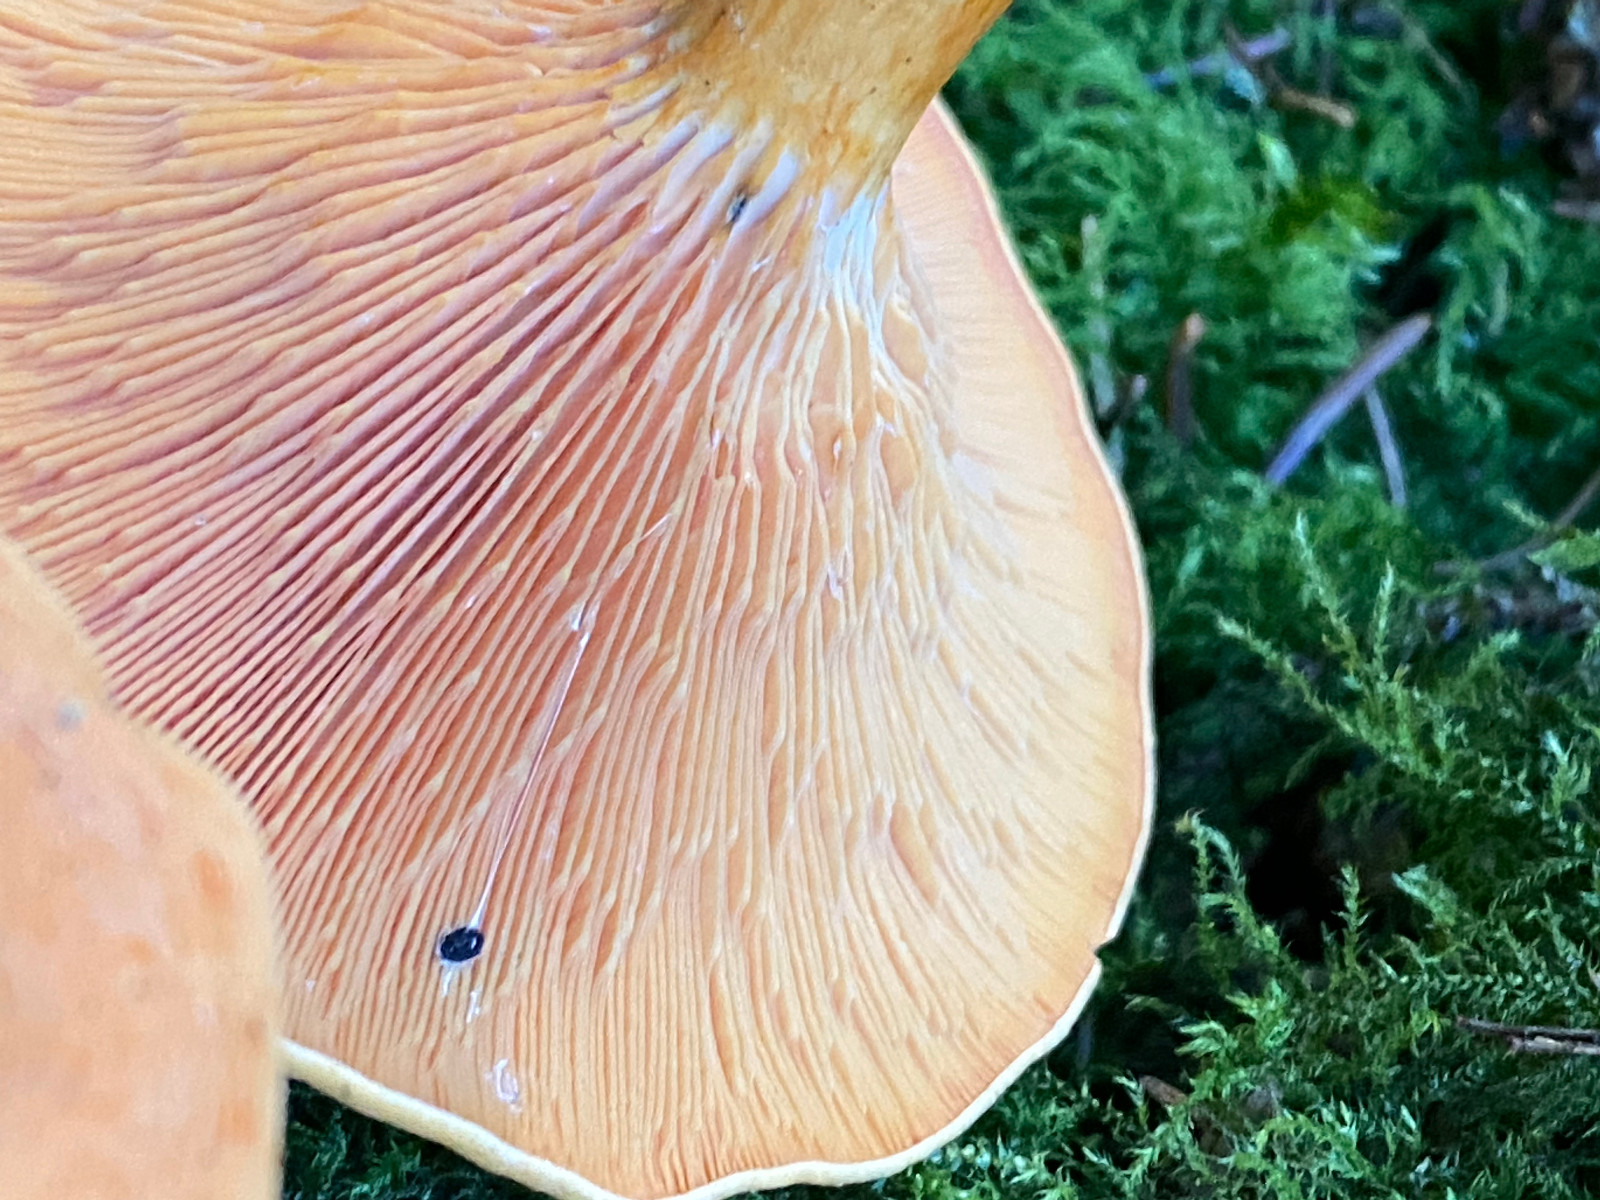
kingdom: Fungi
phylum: Basidiomycota
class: Agaricomycetes
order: Boletales
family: Hygrophoropsidaceae
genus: Hygrophoropsis
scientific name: Hygrophoropsis aurantiaca
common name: almindelig orangekantarel
